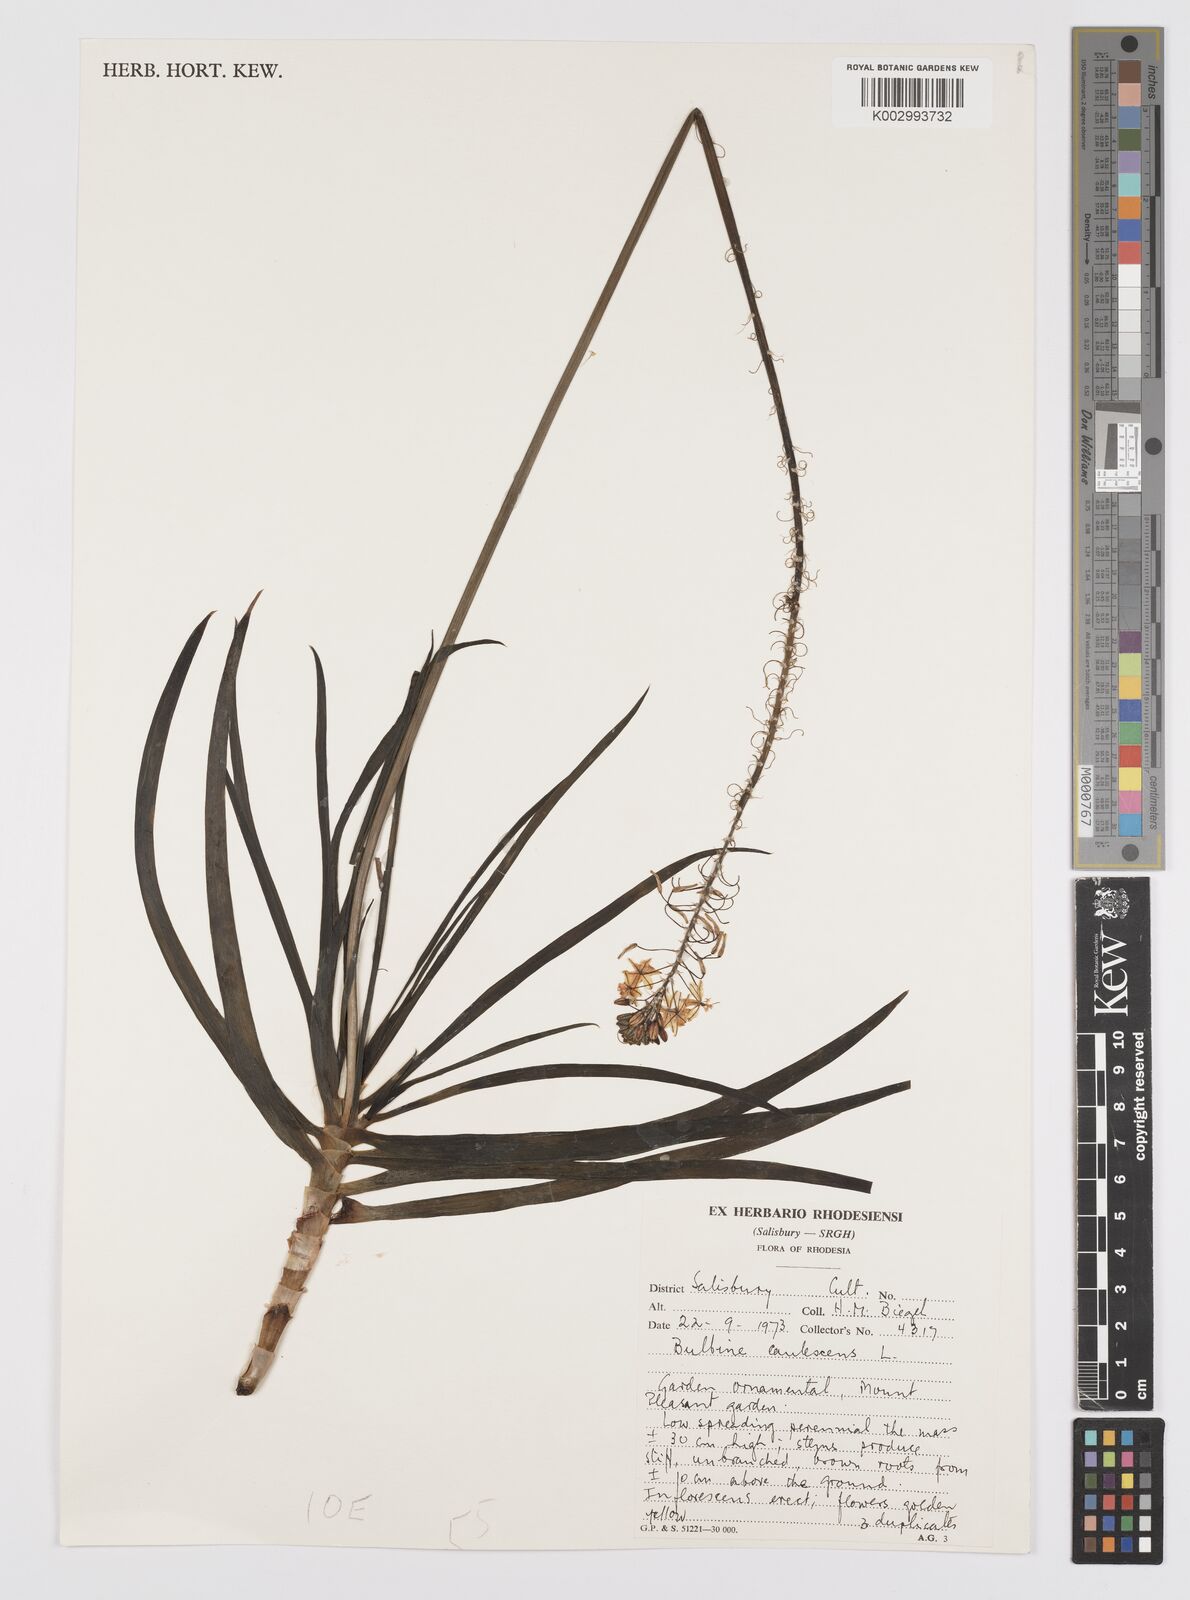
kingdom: Plantae
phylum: Tracheophyta
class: Liliopsida
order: Asparagales
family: Asphodelaceae
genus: Bulbine
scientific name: Bulbine frutescens
